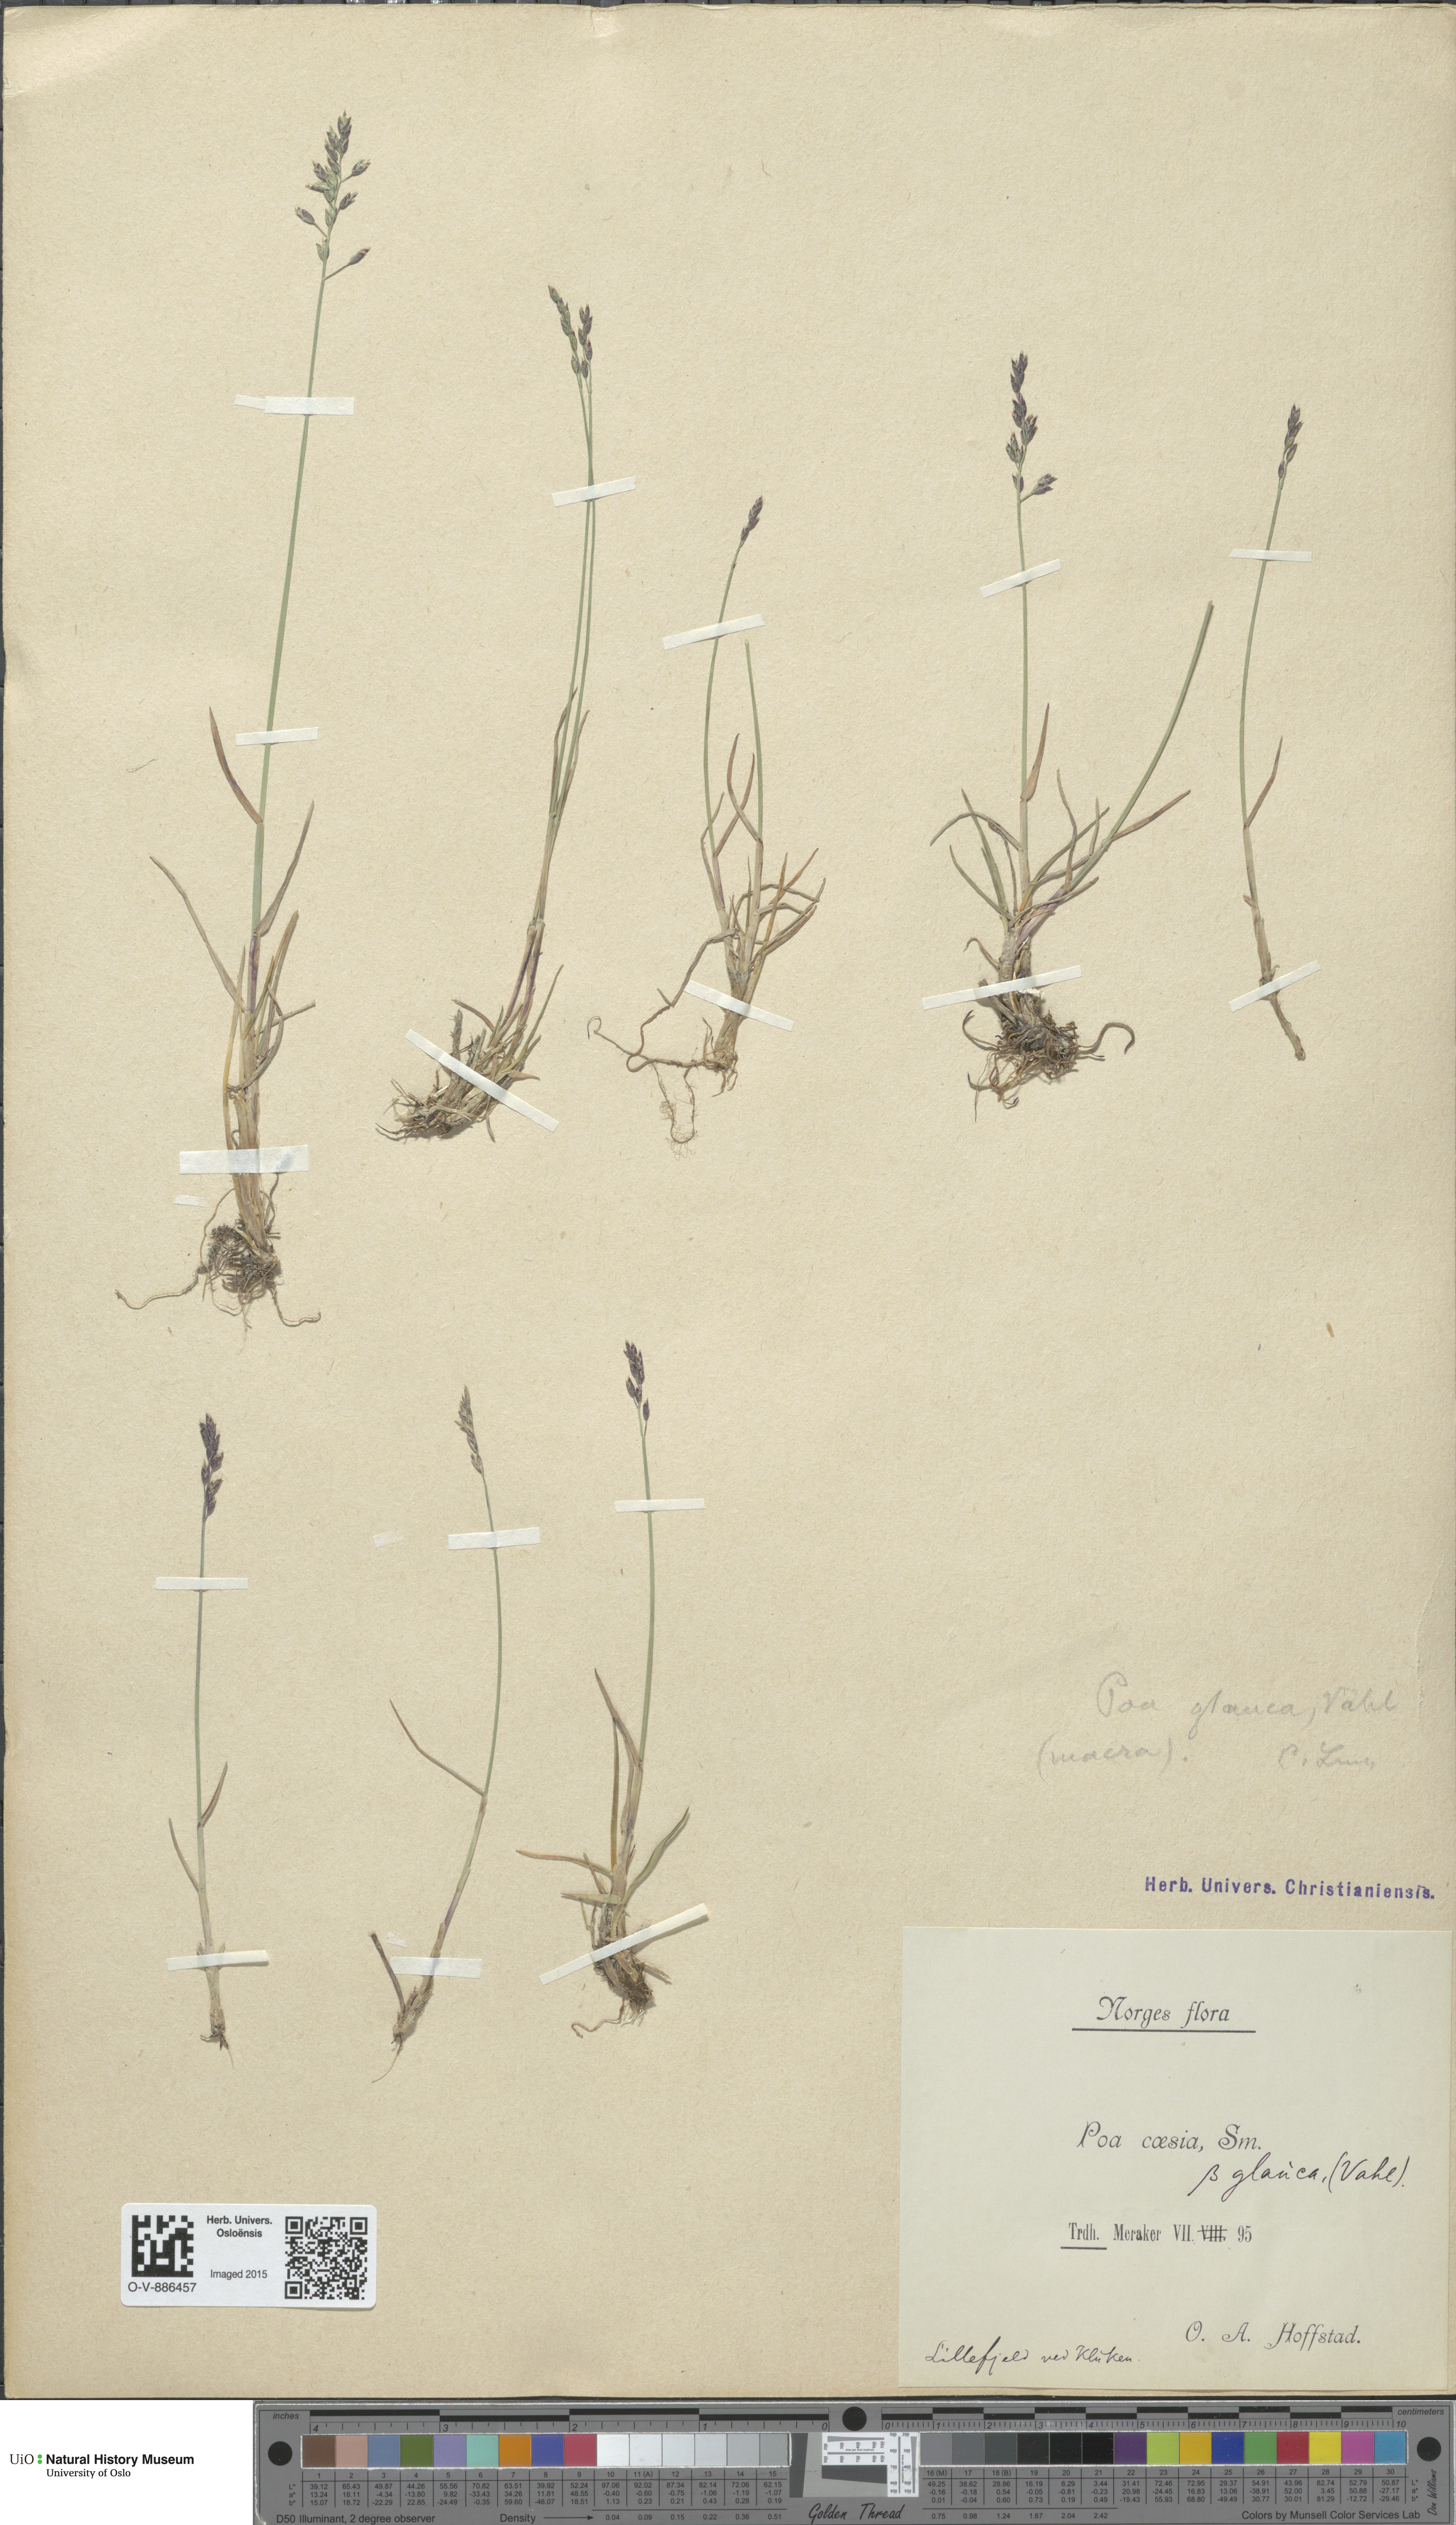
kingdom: Plantae
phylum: Tracheophyta
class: Liliopsida
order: Poales
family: Poaceae
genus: Poa
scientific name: Poa glauca
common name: Glaucous bluegrass
